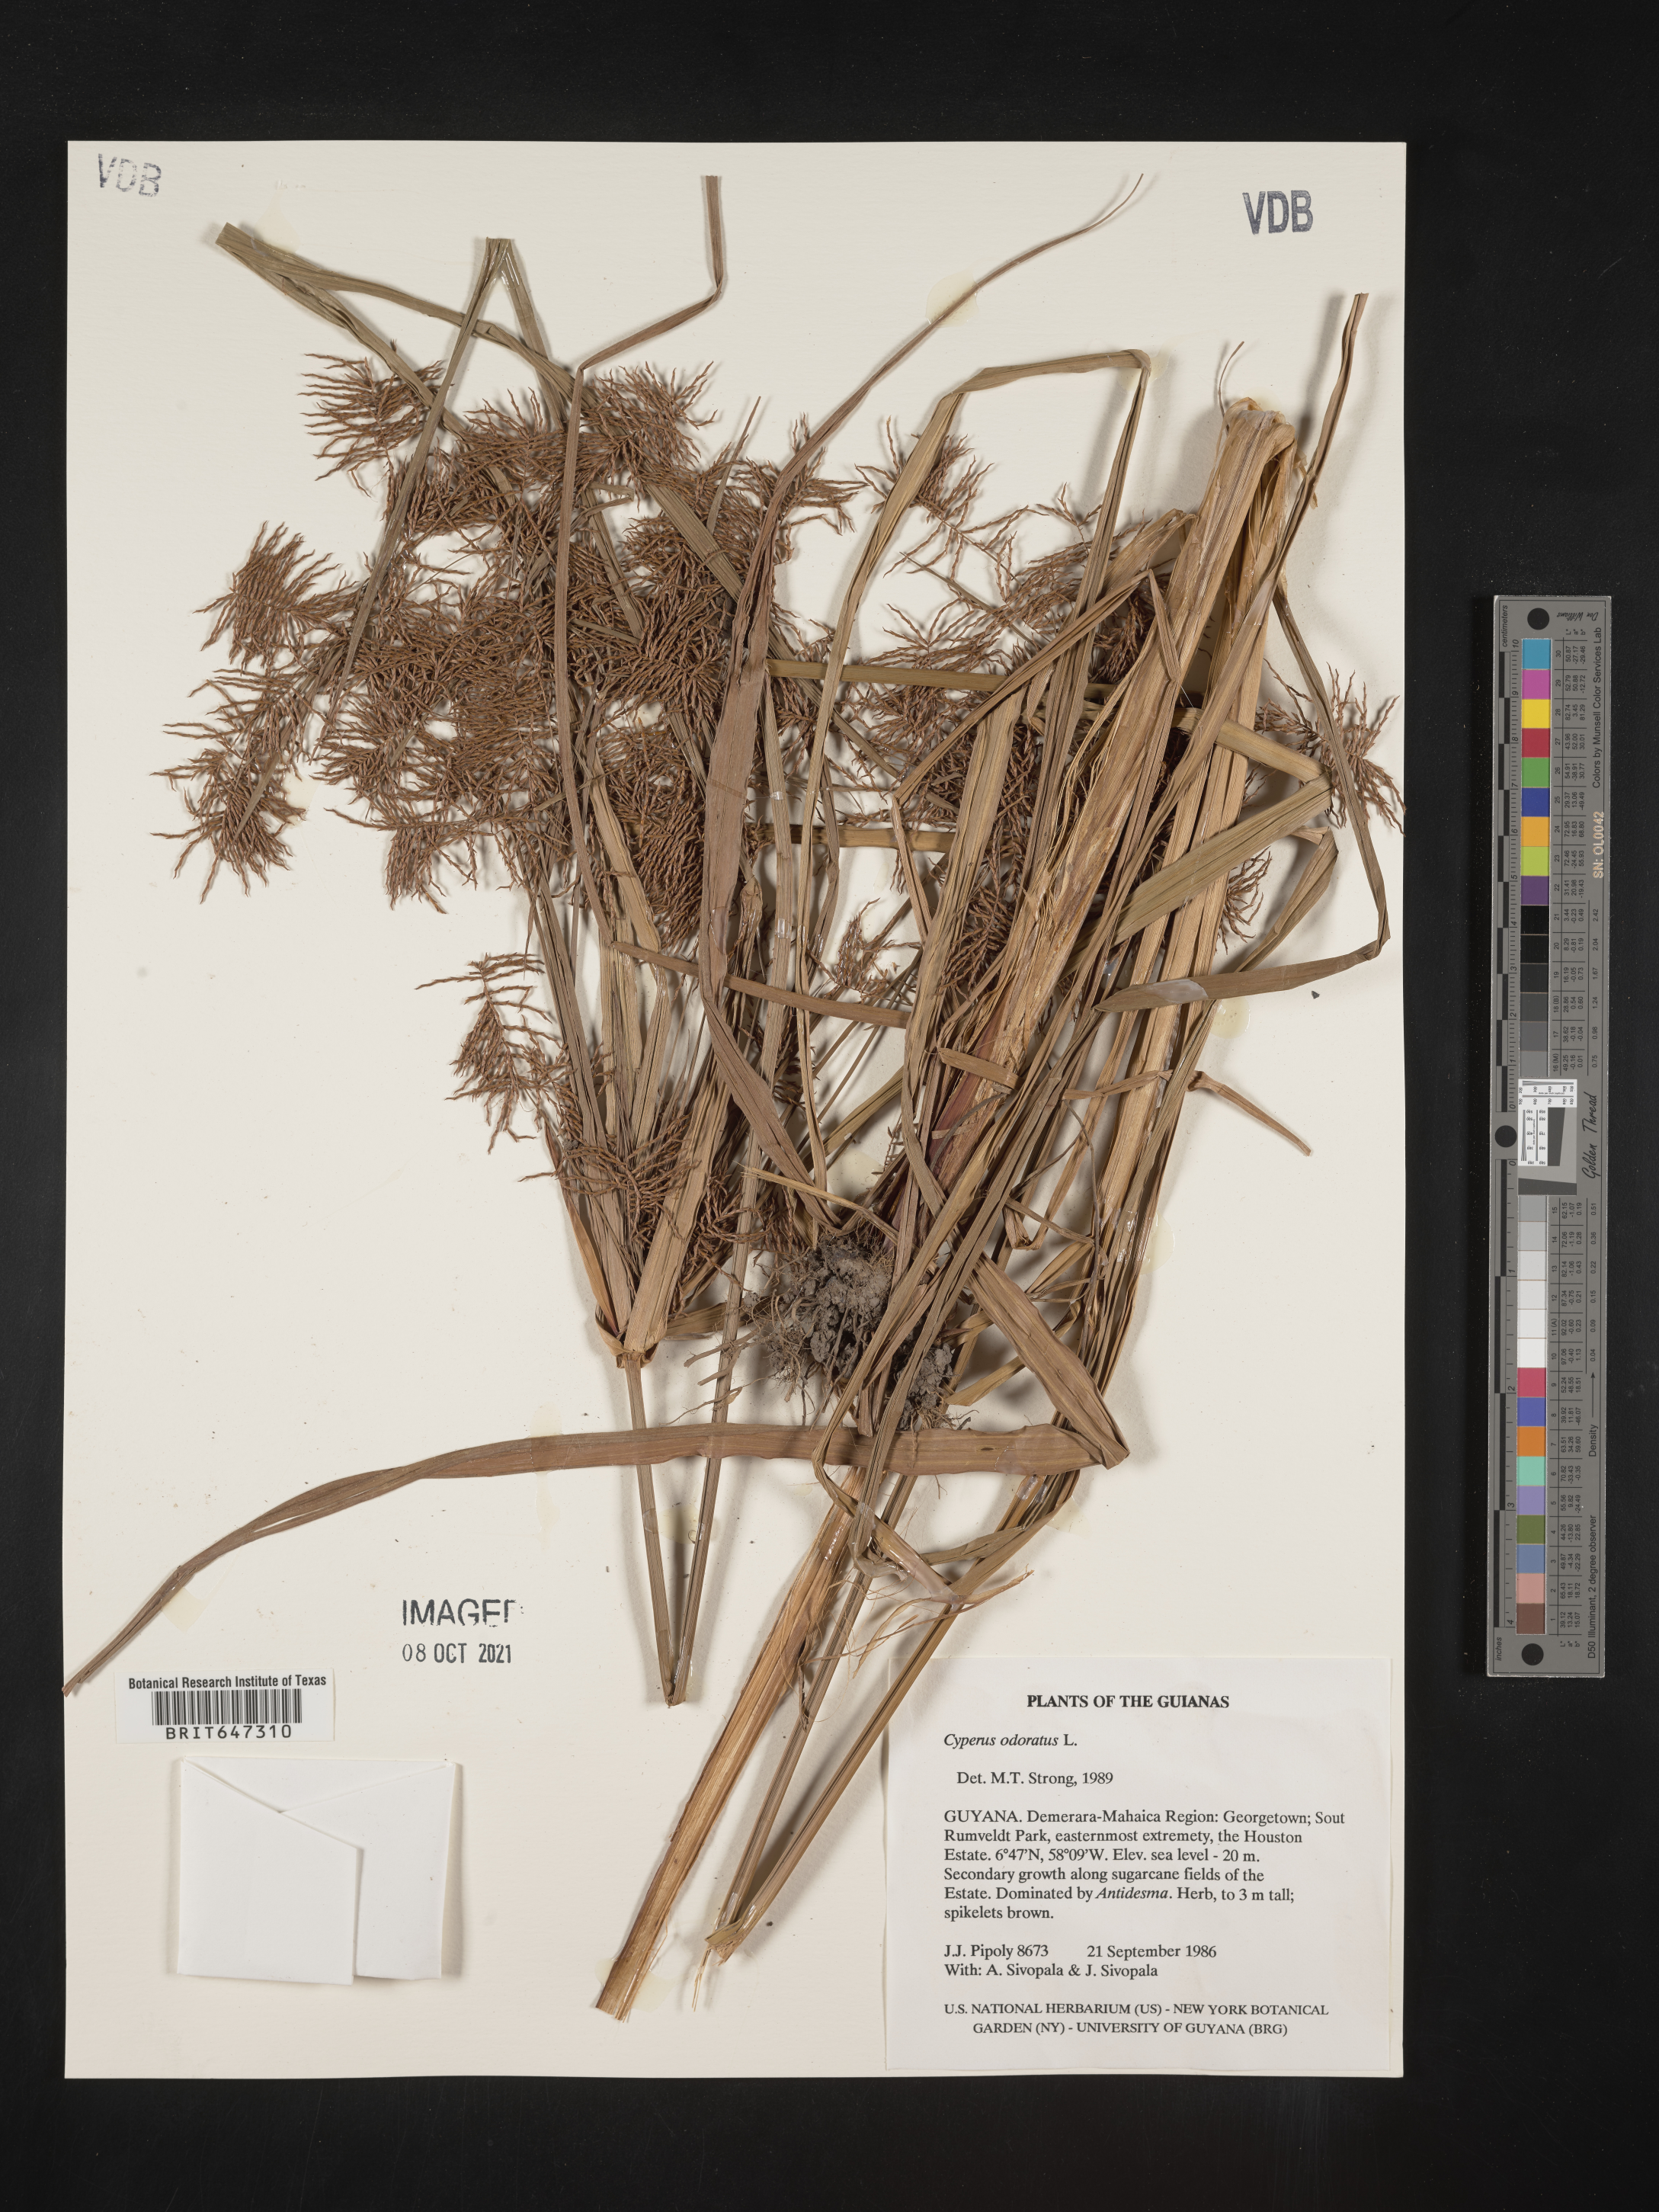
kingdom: Plantae
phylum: Tracheophyta
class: Liliopsida
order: Poales
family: Cyperaceae
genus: Cyperus
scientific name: Cyperus odoratus
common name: Fragrant flatsedge
